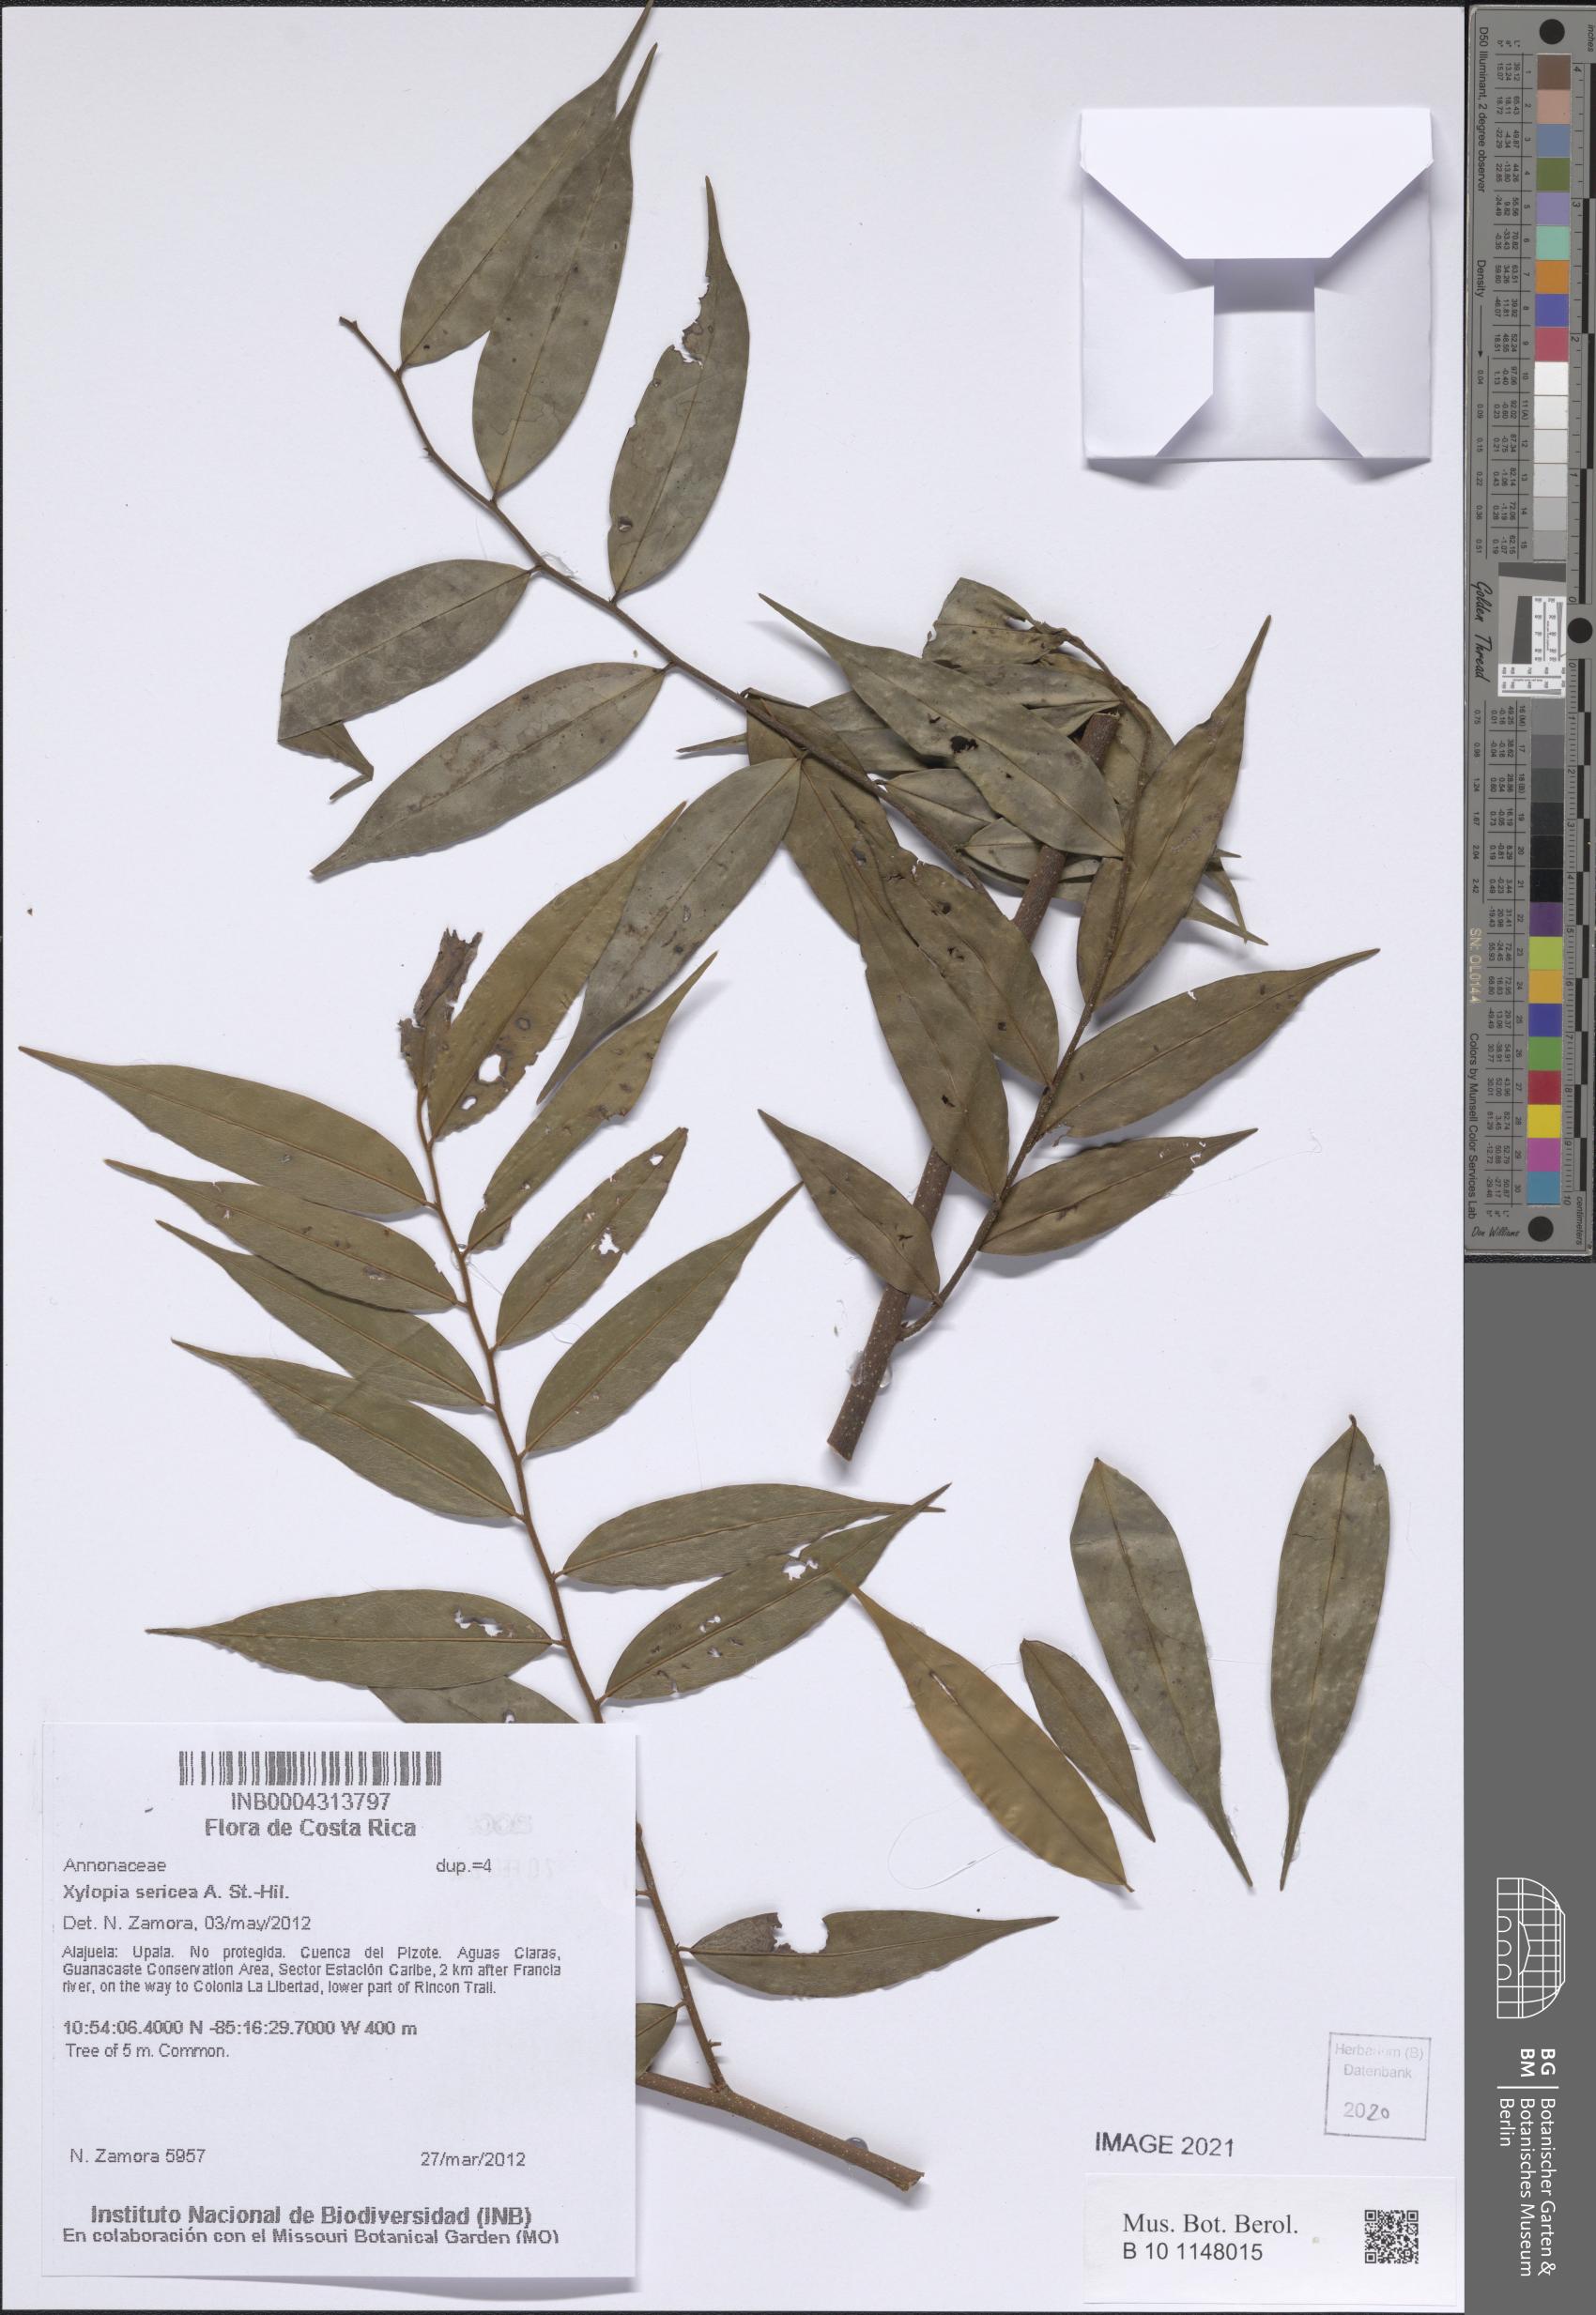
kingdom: Plantae
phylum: Tracheophyta
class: Magnoliopsida
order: Magnoliales
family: Annonaceae
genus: Xylopia
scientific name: Xylopia sericea
